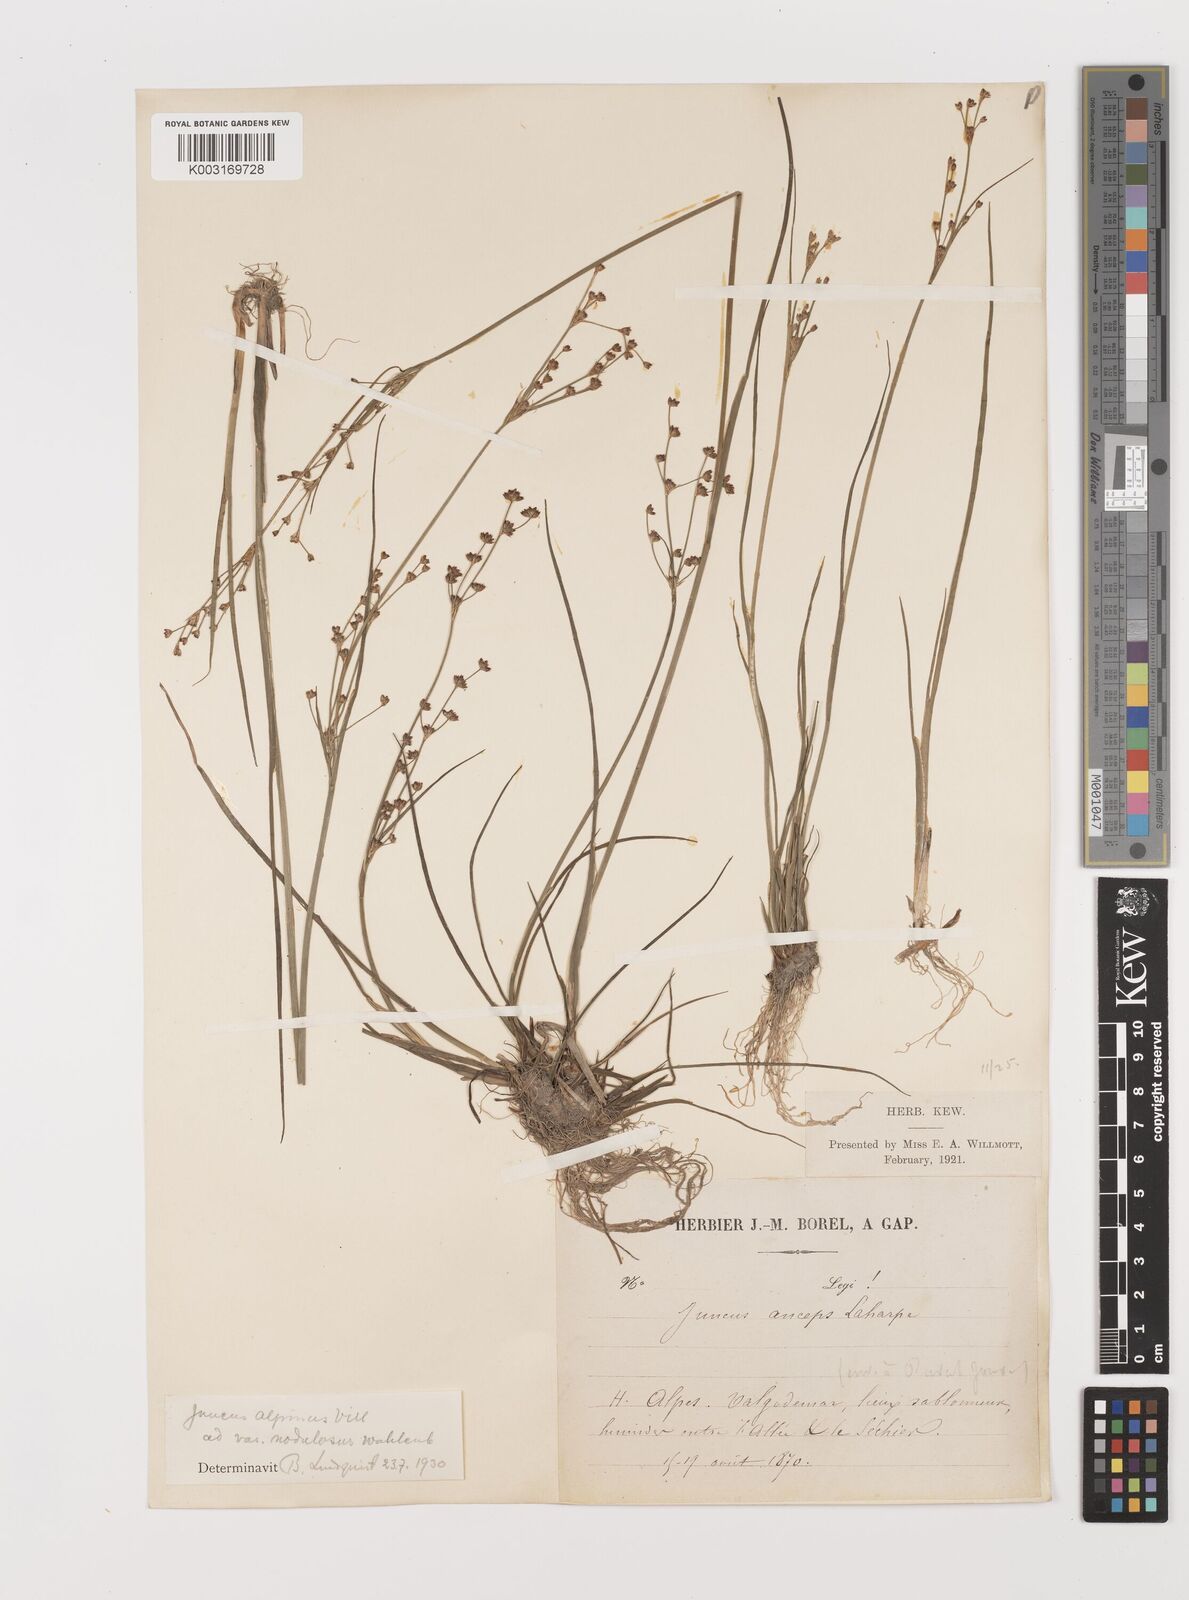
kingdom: Plantae
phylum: Tracheophyta
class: Liliopsida
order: Poales
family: Juncaceae
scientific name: Juncaceae
